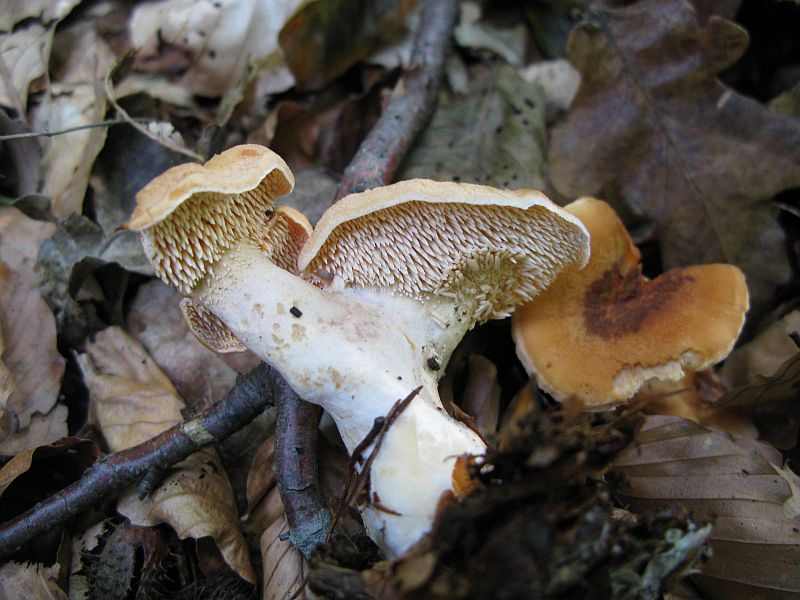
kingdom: Fungi
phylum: Basidiomycota
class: Agaricomycetes
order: Cantharellales
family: Hydnaceae
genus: Hydnum
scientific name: Hydnum umbilicatum
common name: navle-pigsvamp
